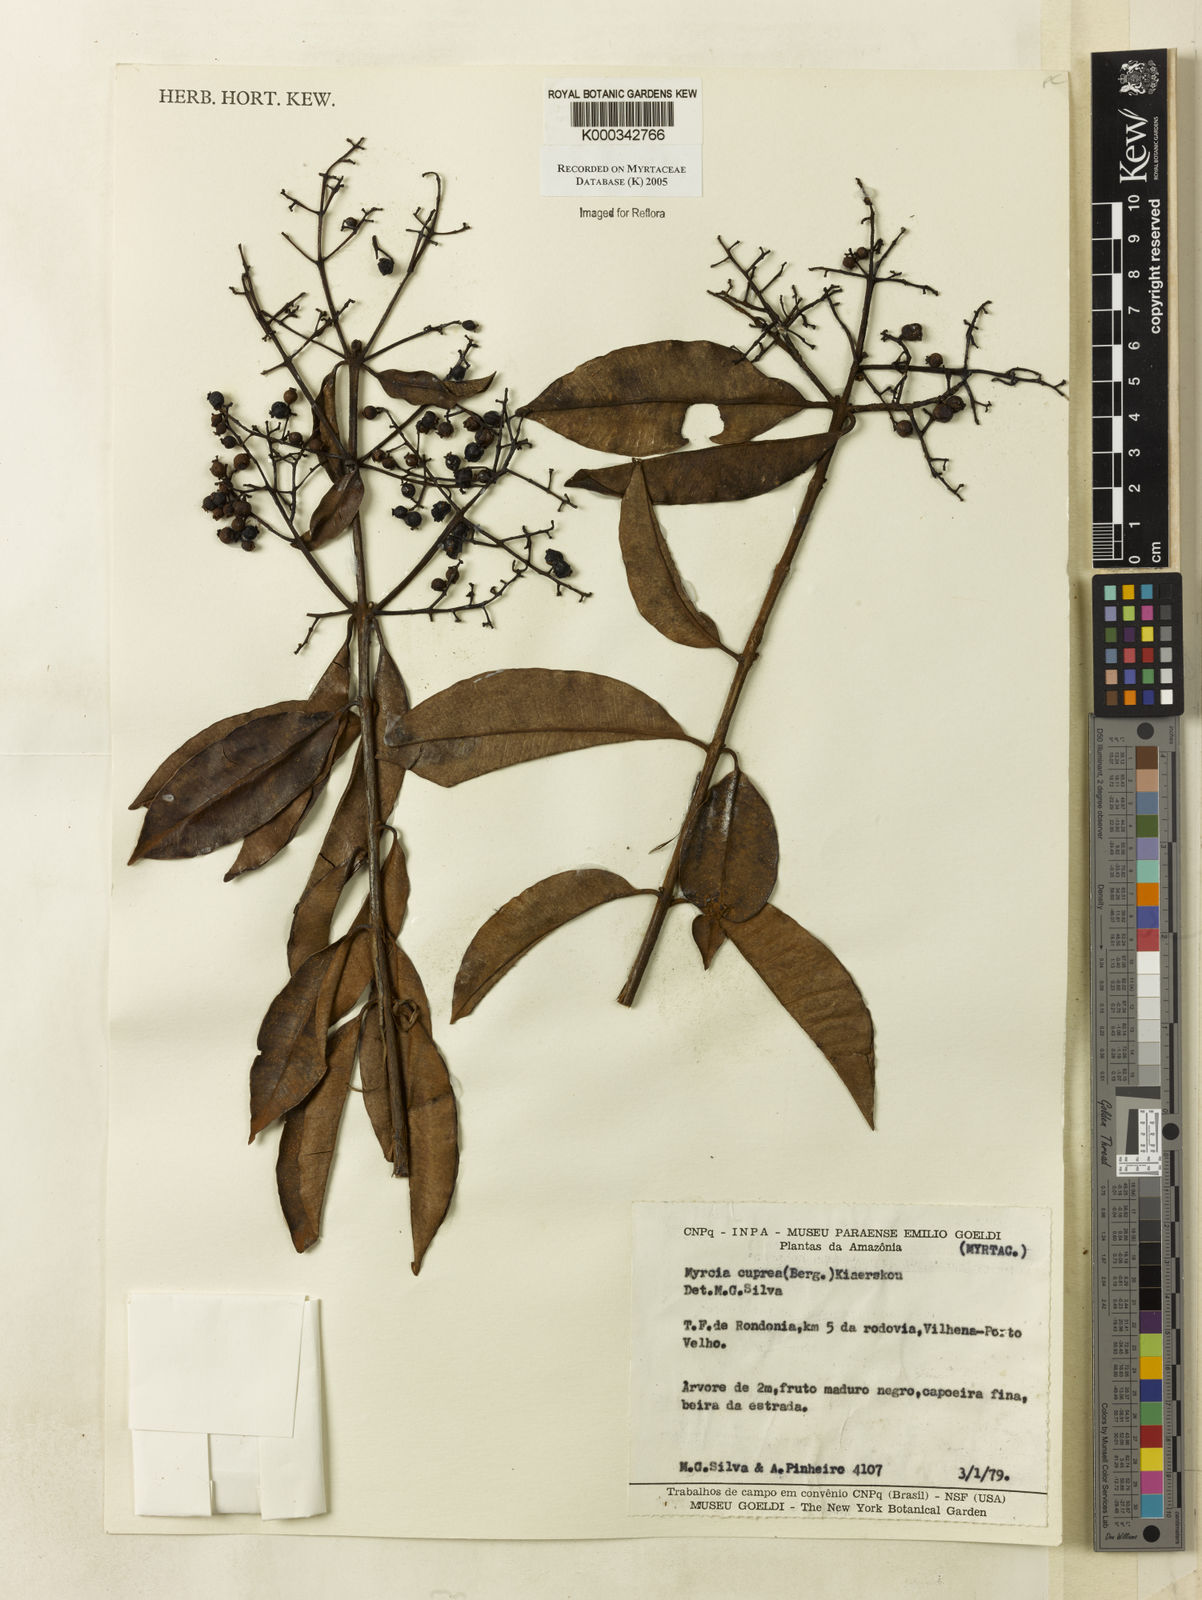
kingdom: Plantae
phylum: Tracheophyta
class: Magnoliopsida
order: Myrtales
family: Myrtaceae
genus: Myrcia
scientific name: Myrcia cuprea
